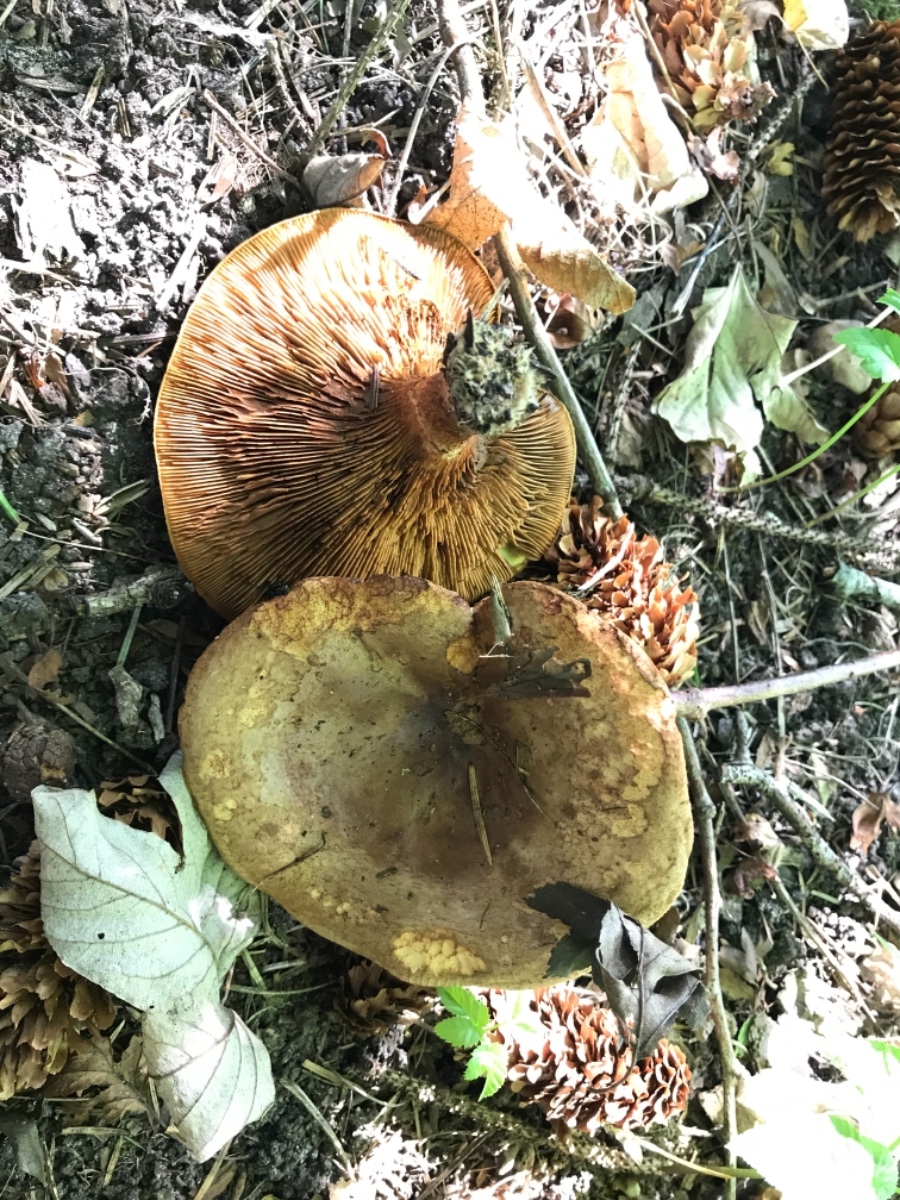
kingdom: Fungi
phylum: Basidiomycota
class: Agaricomycetes
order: Boletales
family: Paxillaceae
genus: Paxillus
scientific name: Paxillus involutus
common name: almindelig netbladhat
